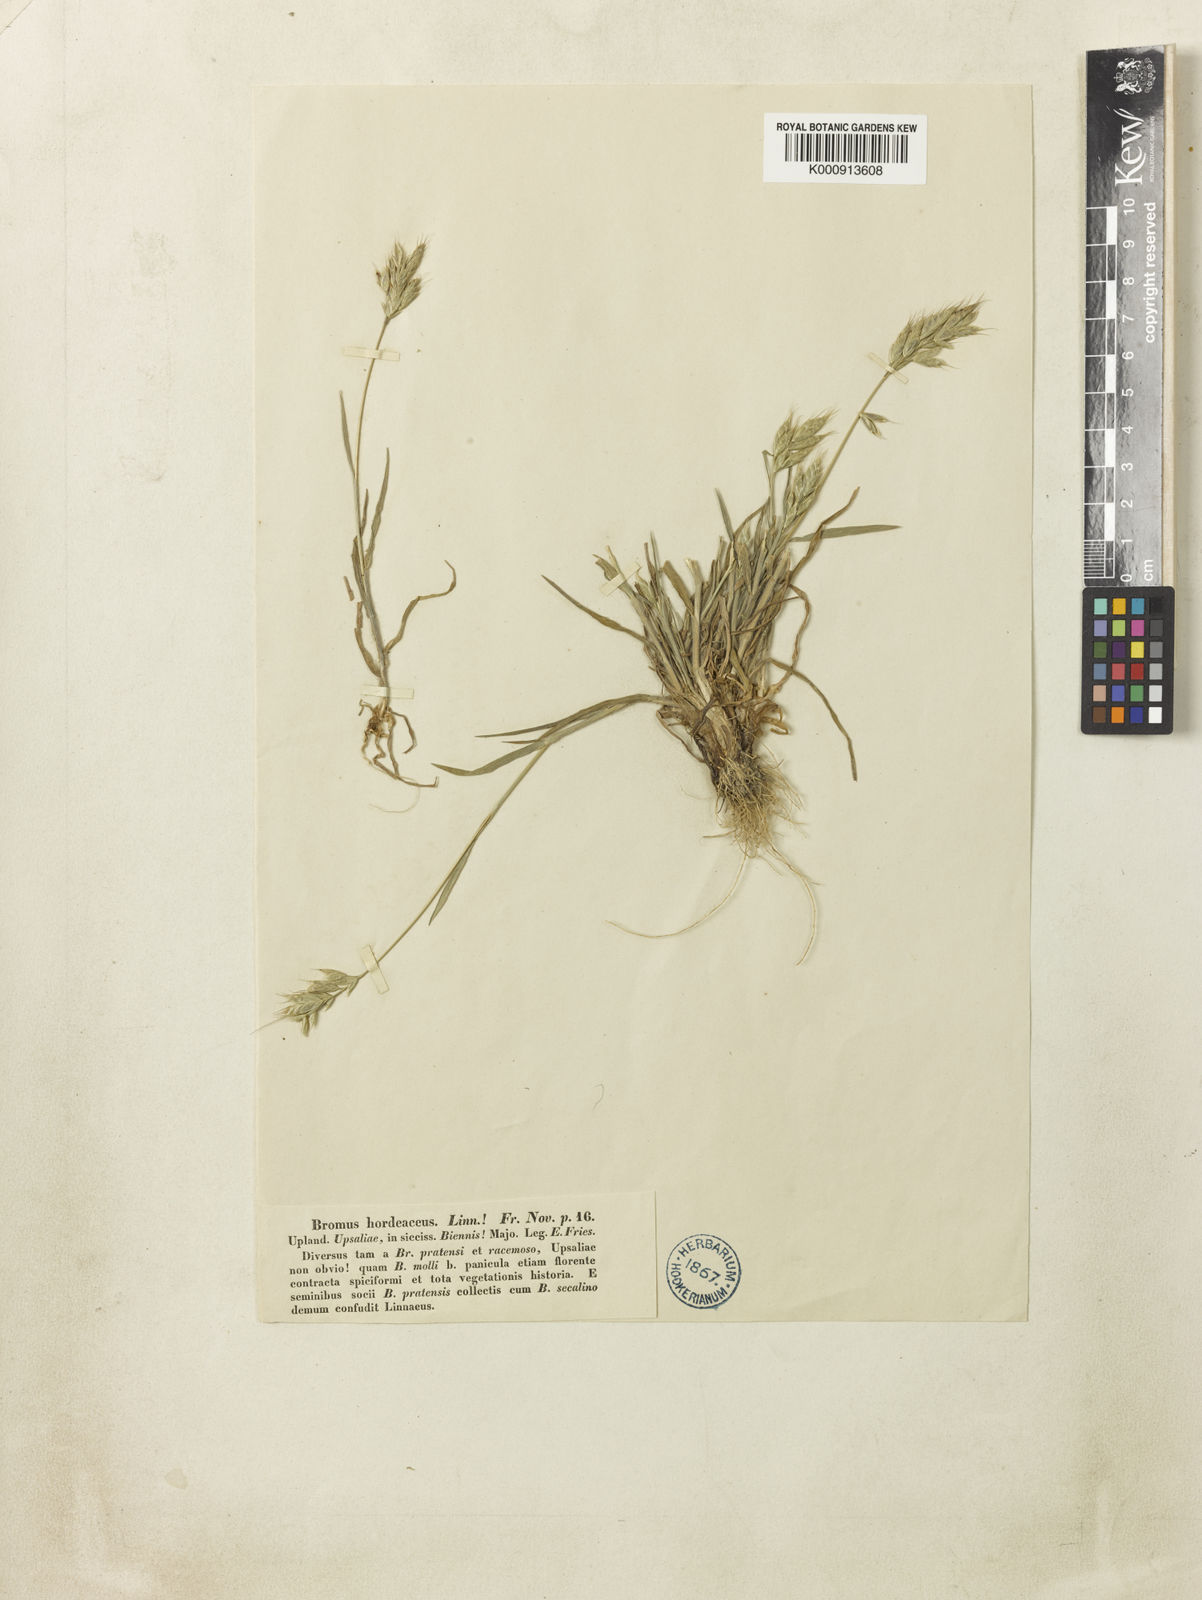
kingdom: Plantae
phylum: Tracheophyta
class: Liliopsida
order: Poales
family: Poaceae
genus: Bromus
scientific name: Bromus hordeaceus
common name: Soft brome
